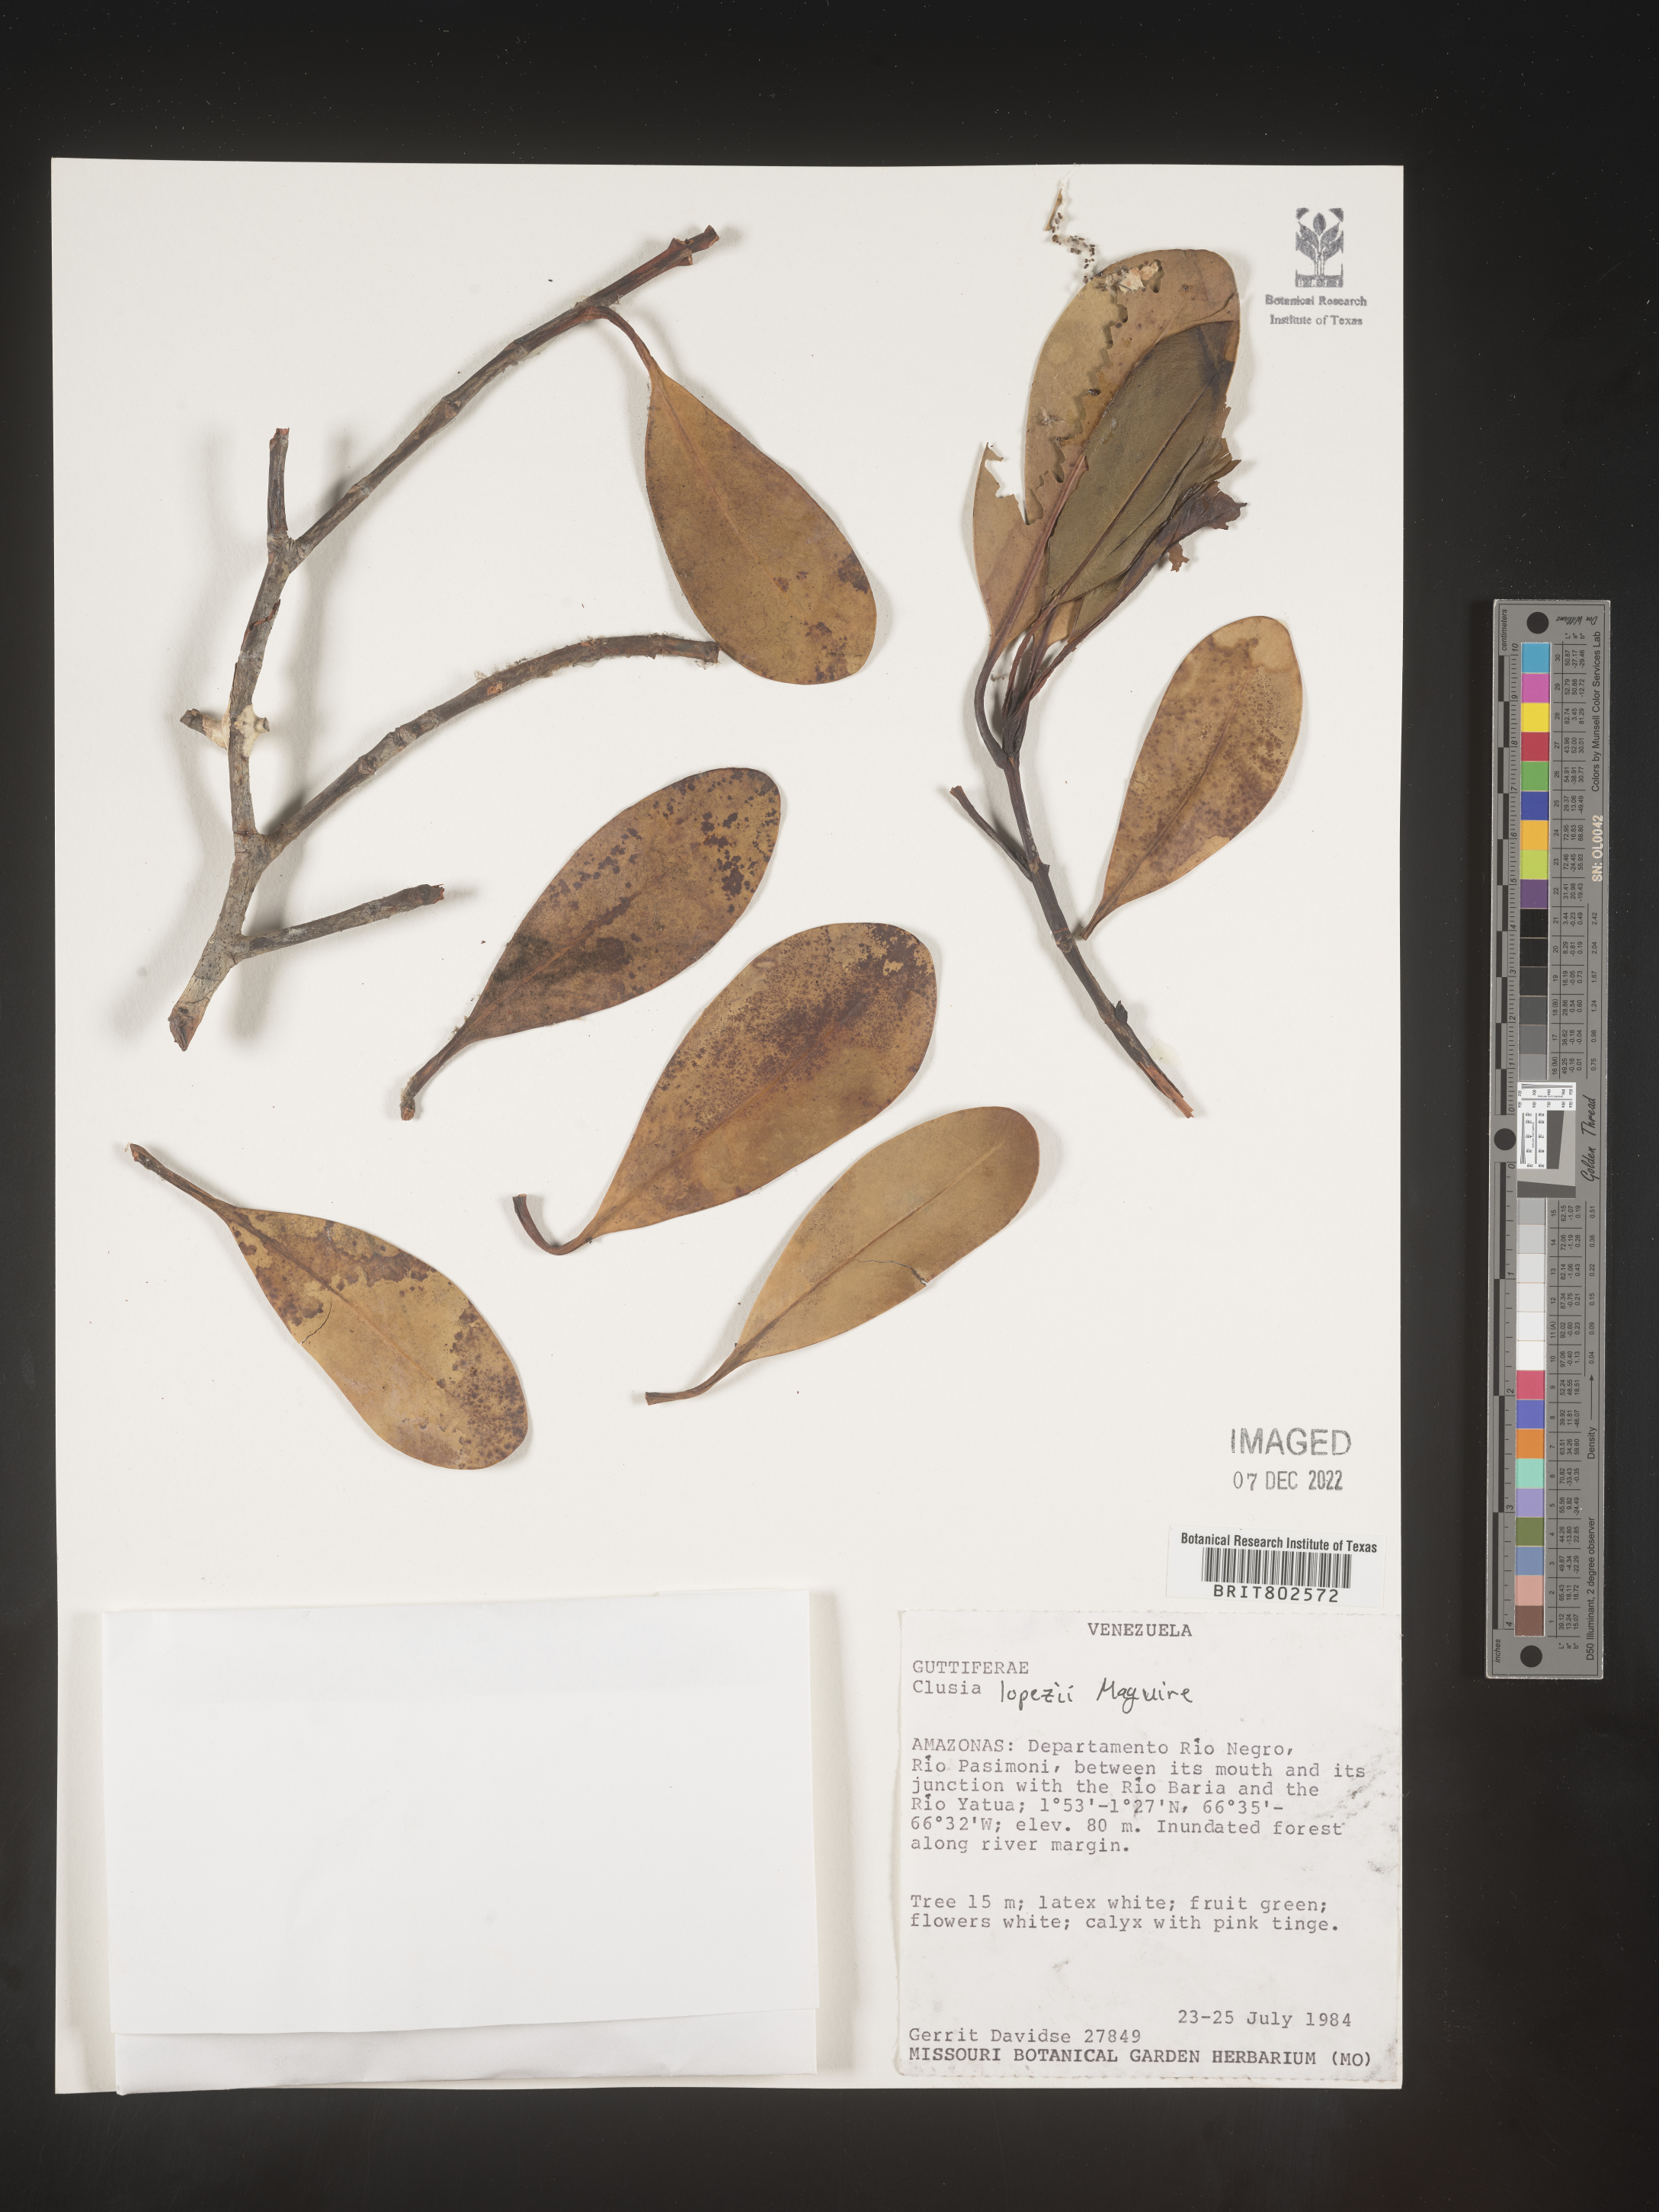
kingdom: Plantae
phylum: Tracheophyta
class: Magnoliopsida
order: Malpighiales
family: Clusiaceae
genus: Clusia
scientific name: Clusia lopezii
